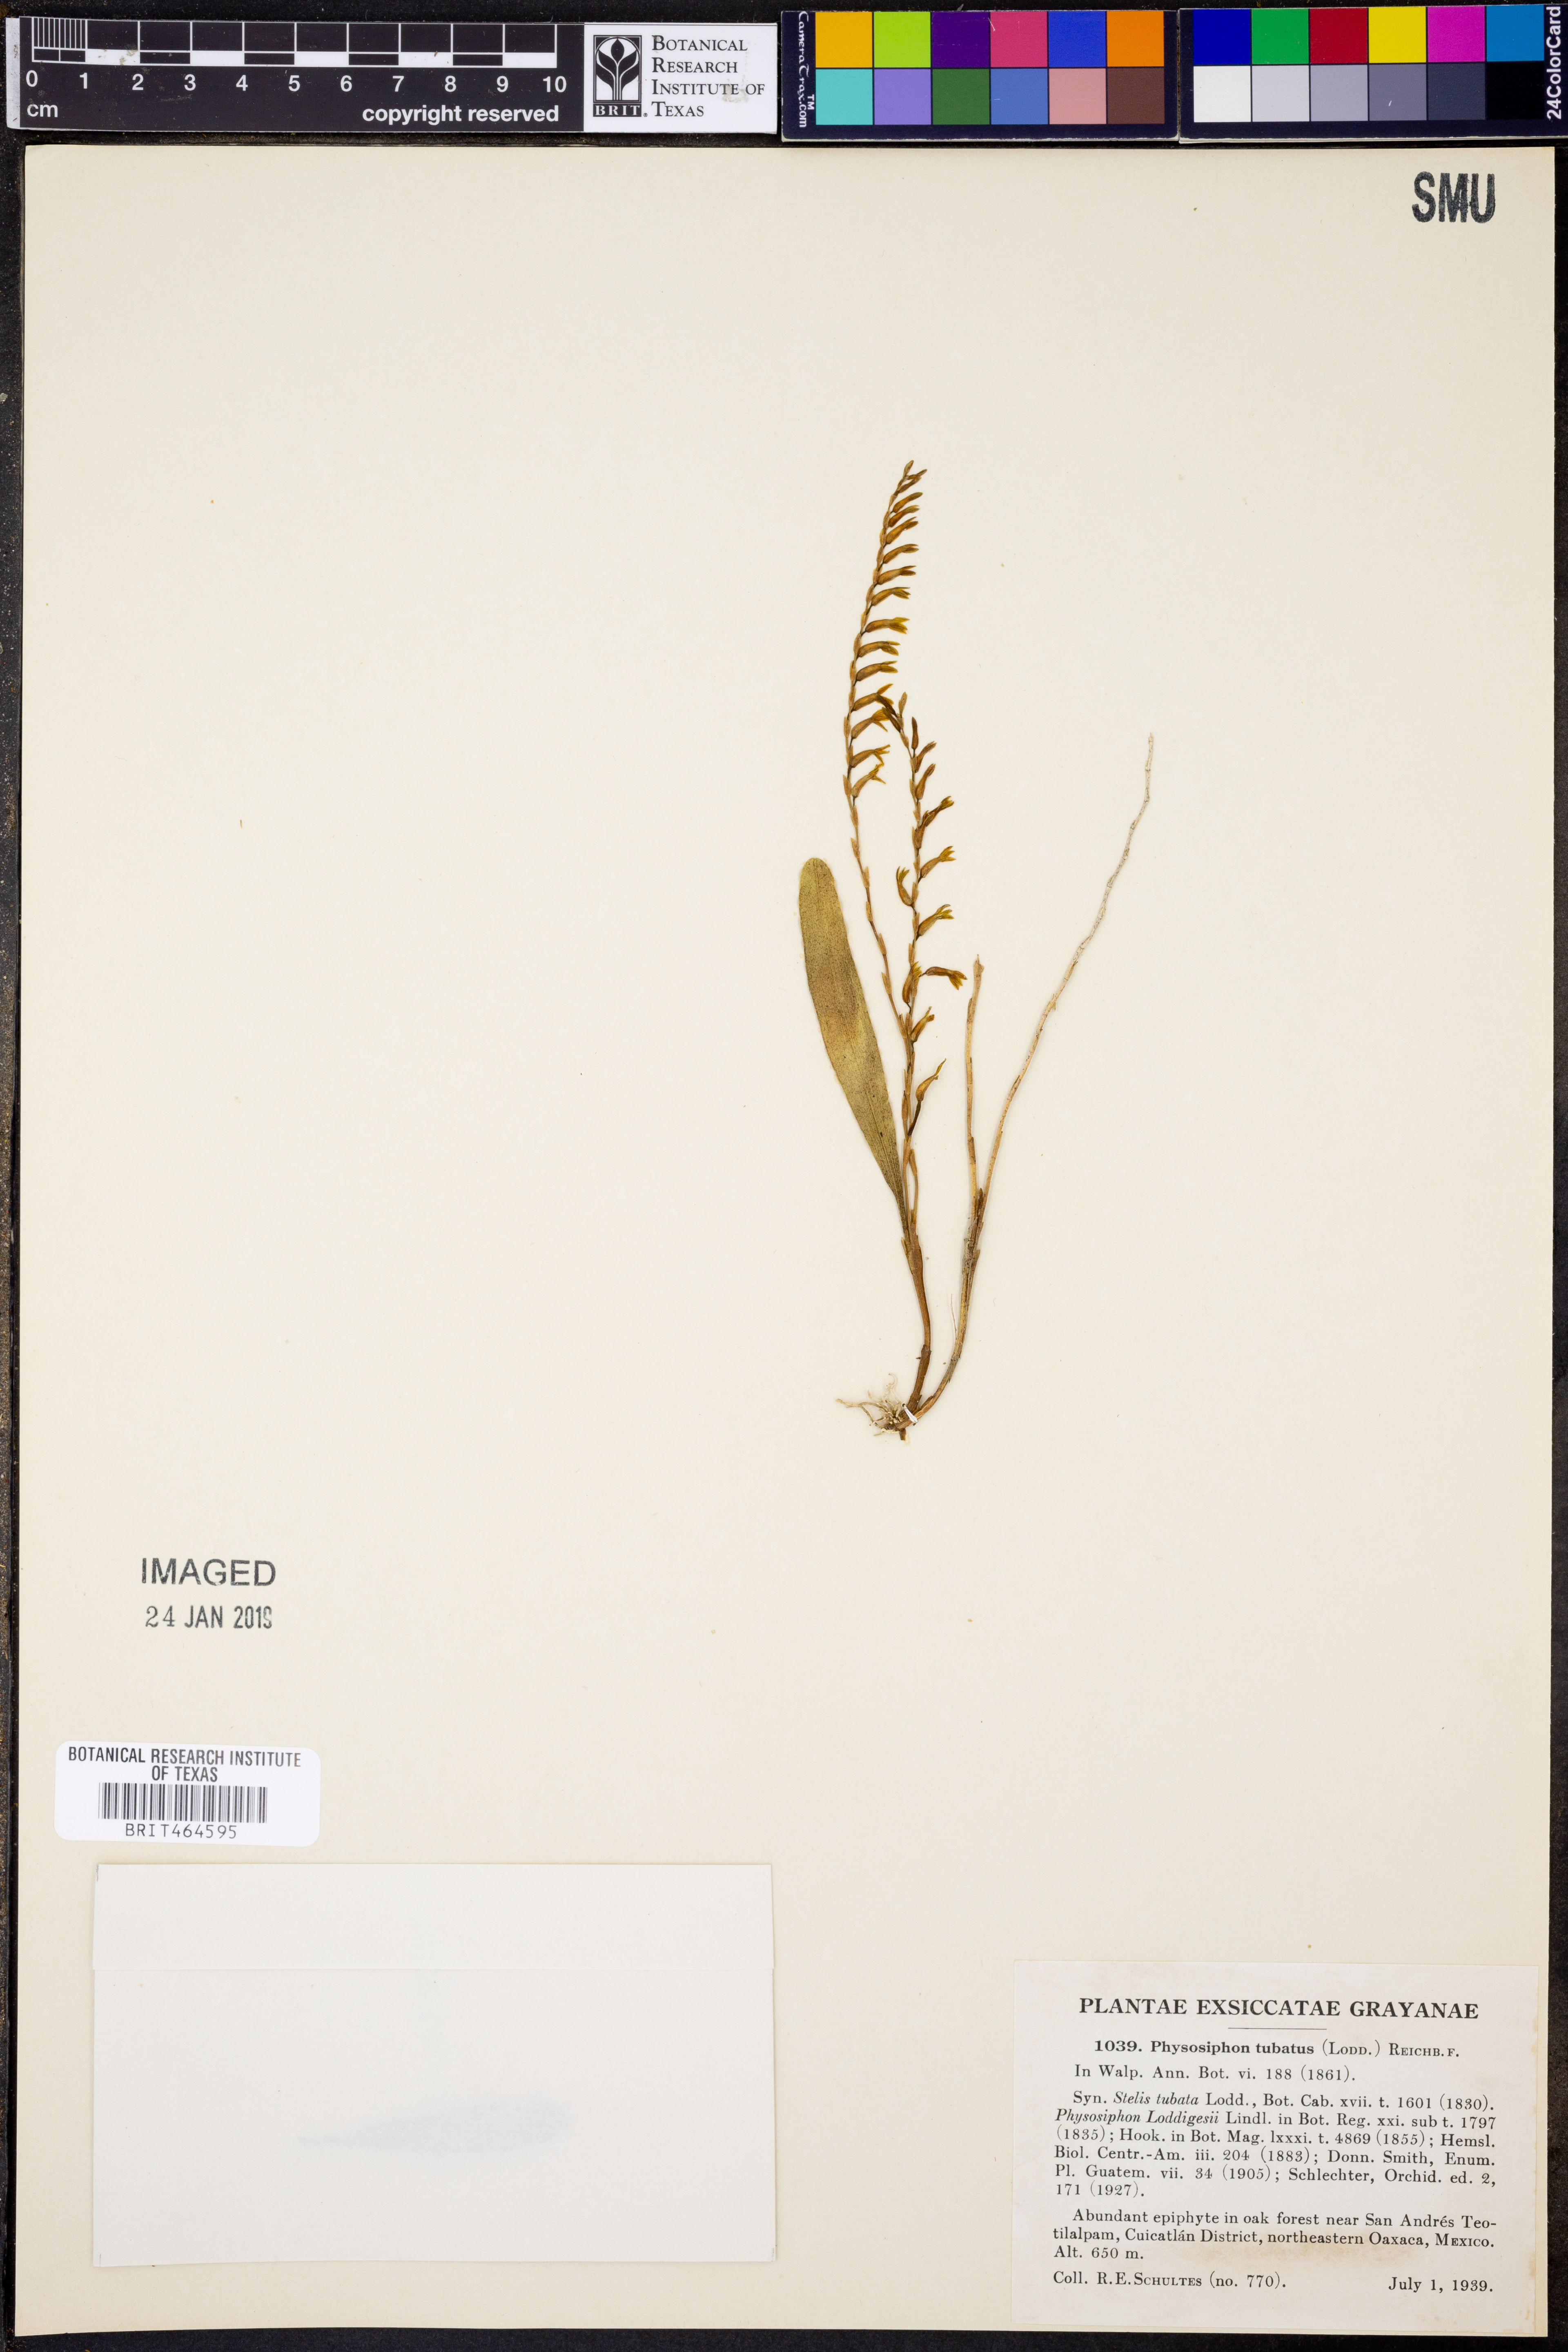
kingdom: Plantae
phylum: Tracheophyta
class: Liliopsida
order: Asparagales
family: Orchidaceae
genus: Stelis
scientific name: Stelis emarginata
